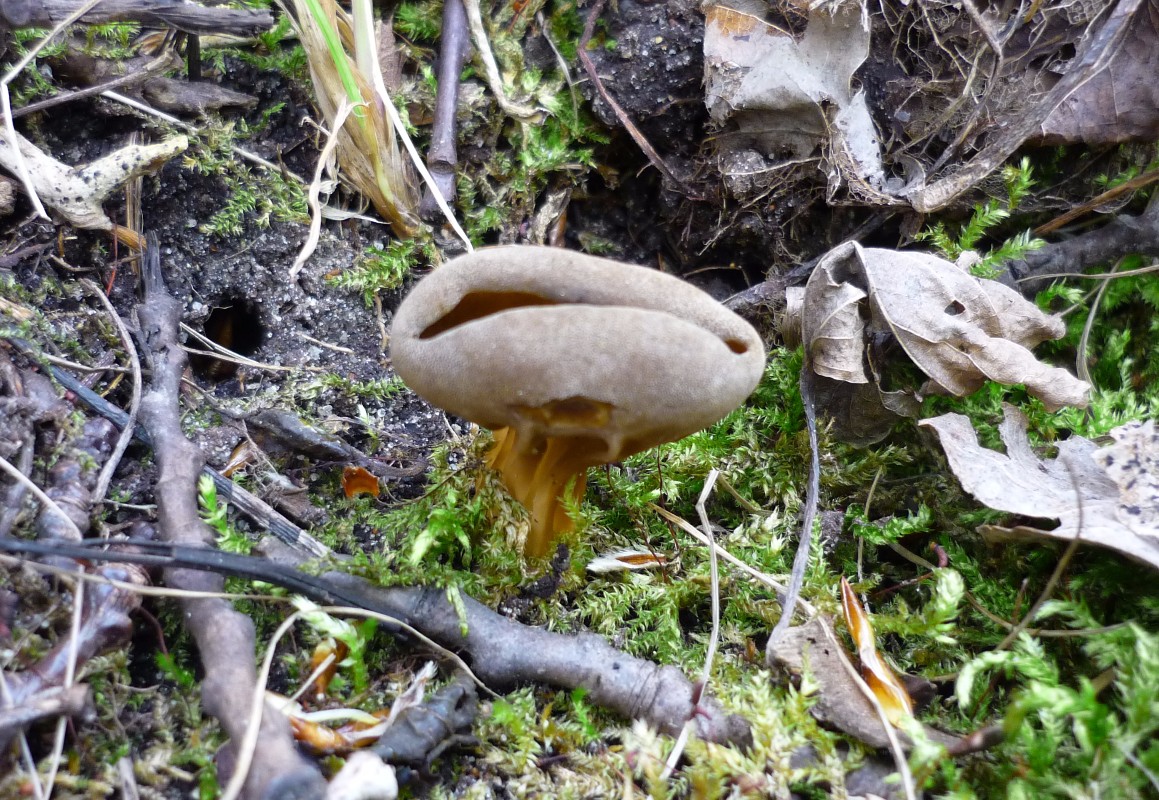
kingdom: Fungi
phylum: Ascomycota
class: Pezizomycetes
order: Pezizales
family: Helvellaceae
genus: Helvella
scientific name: Helvella acetabulum
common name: pokal-foldhat
